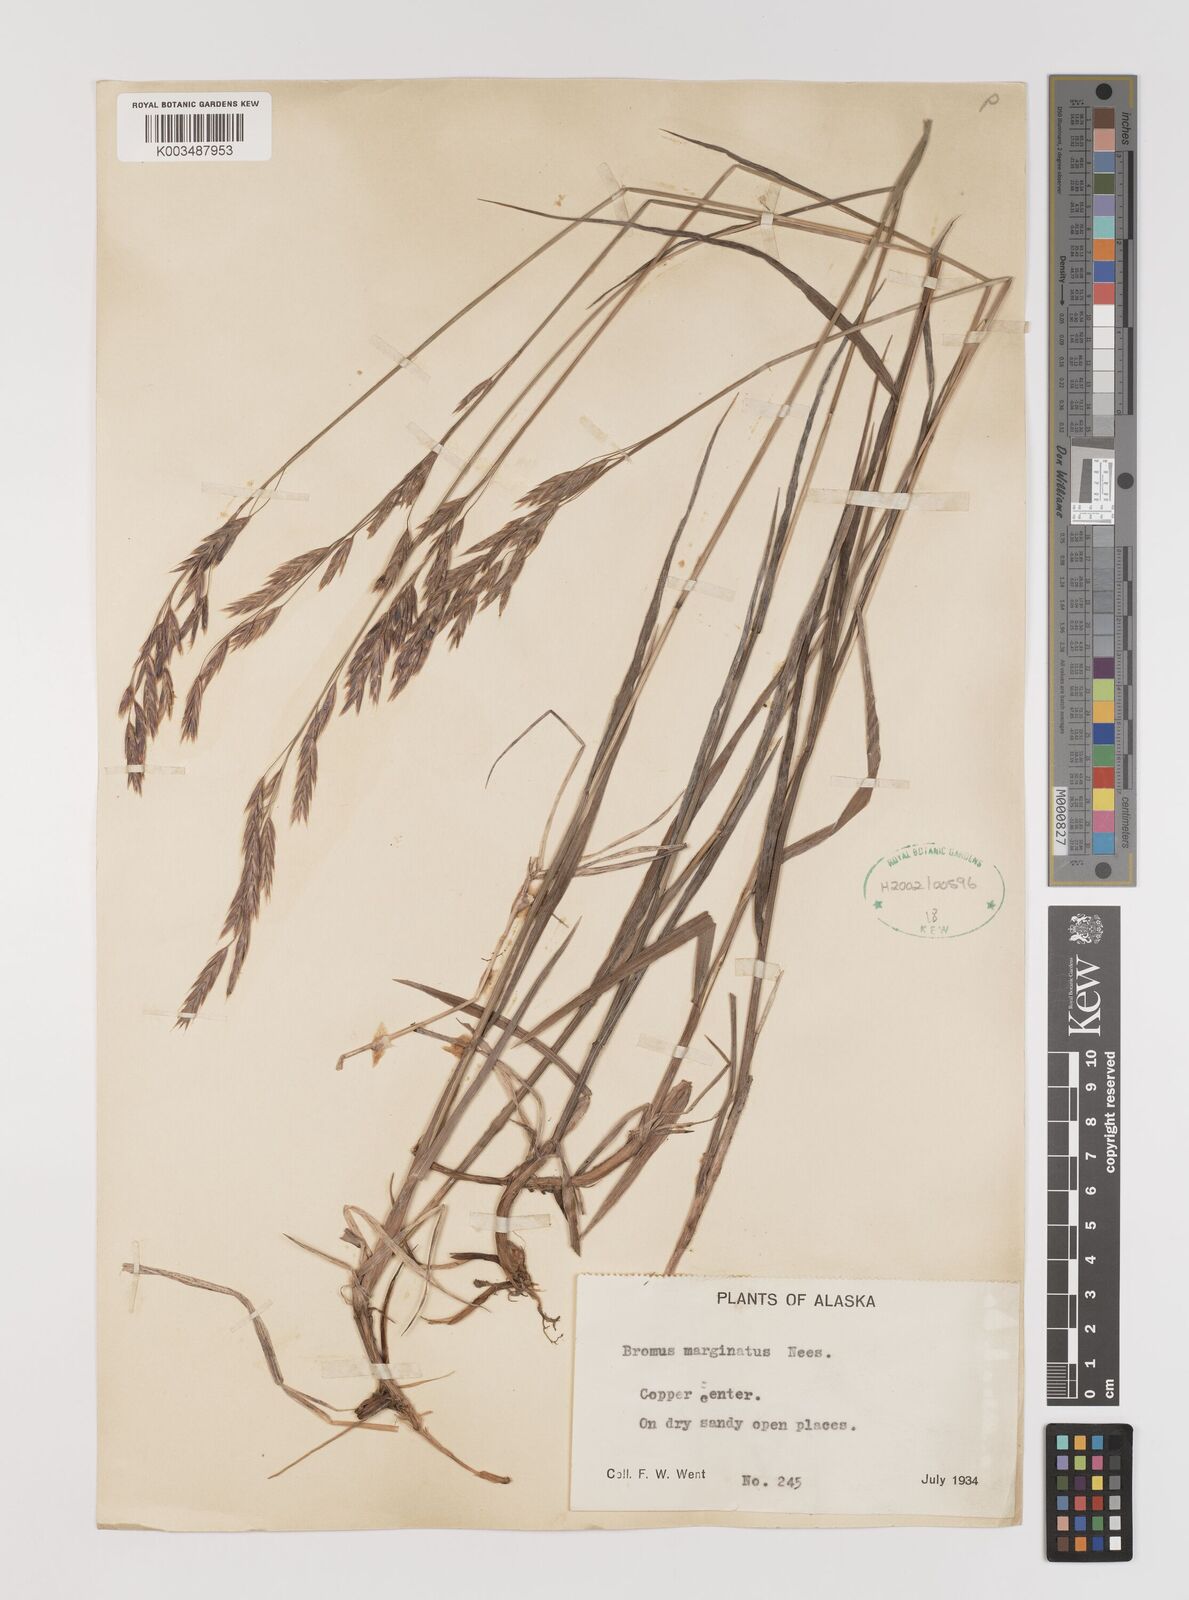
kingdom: Plantae
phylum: Tracheophyta
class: Liliopsida
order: Poales
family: Poaceae
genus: Bromus
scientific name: Bromus marginatus
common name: Western brome
